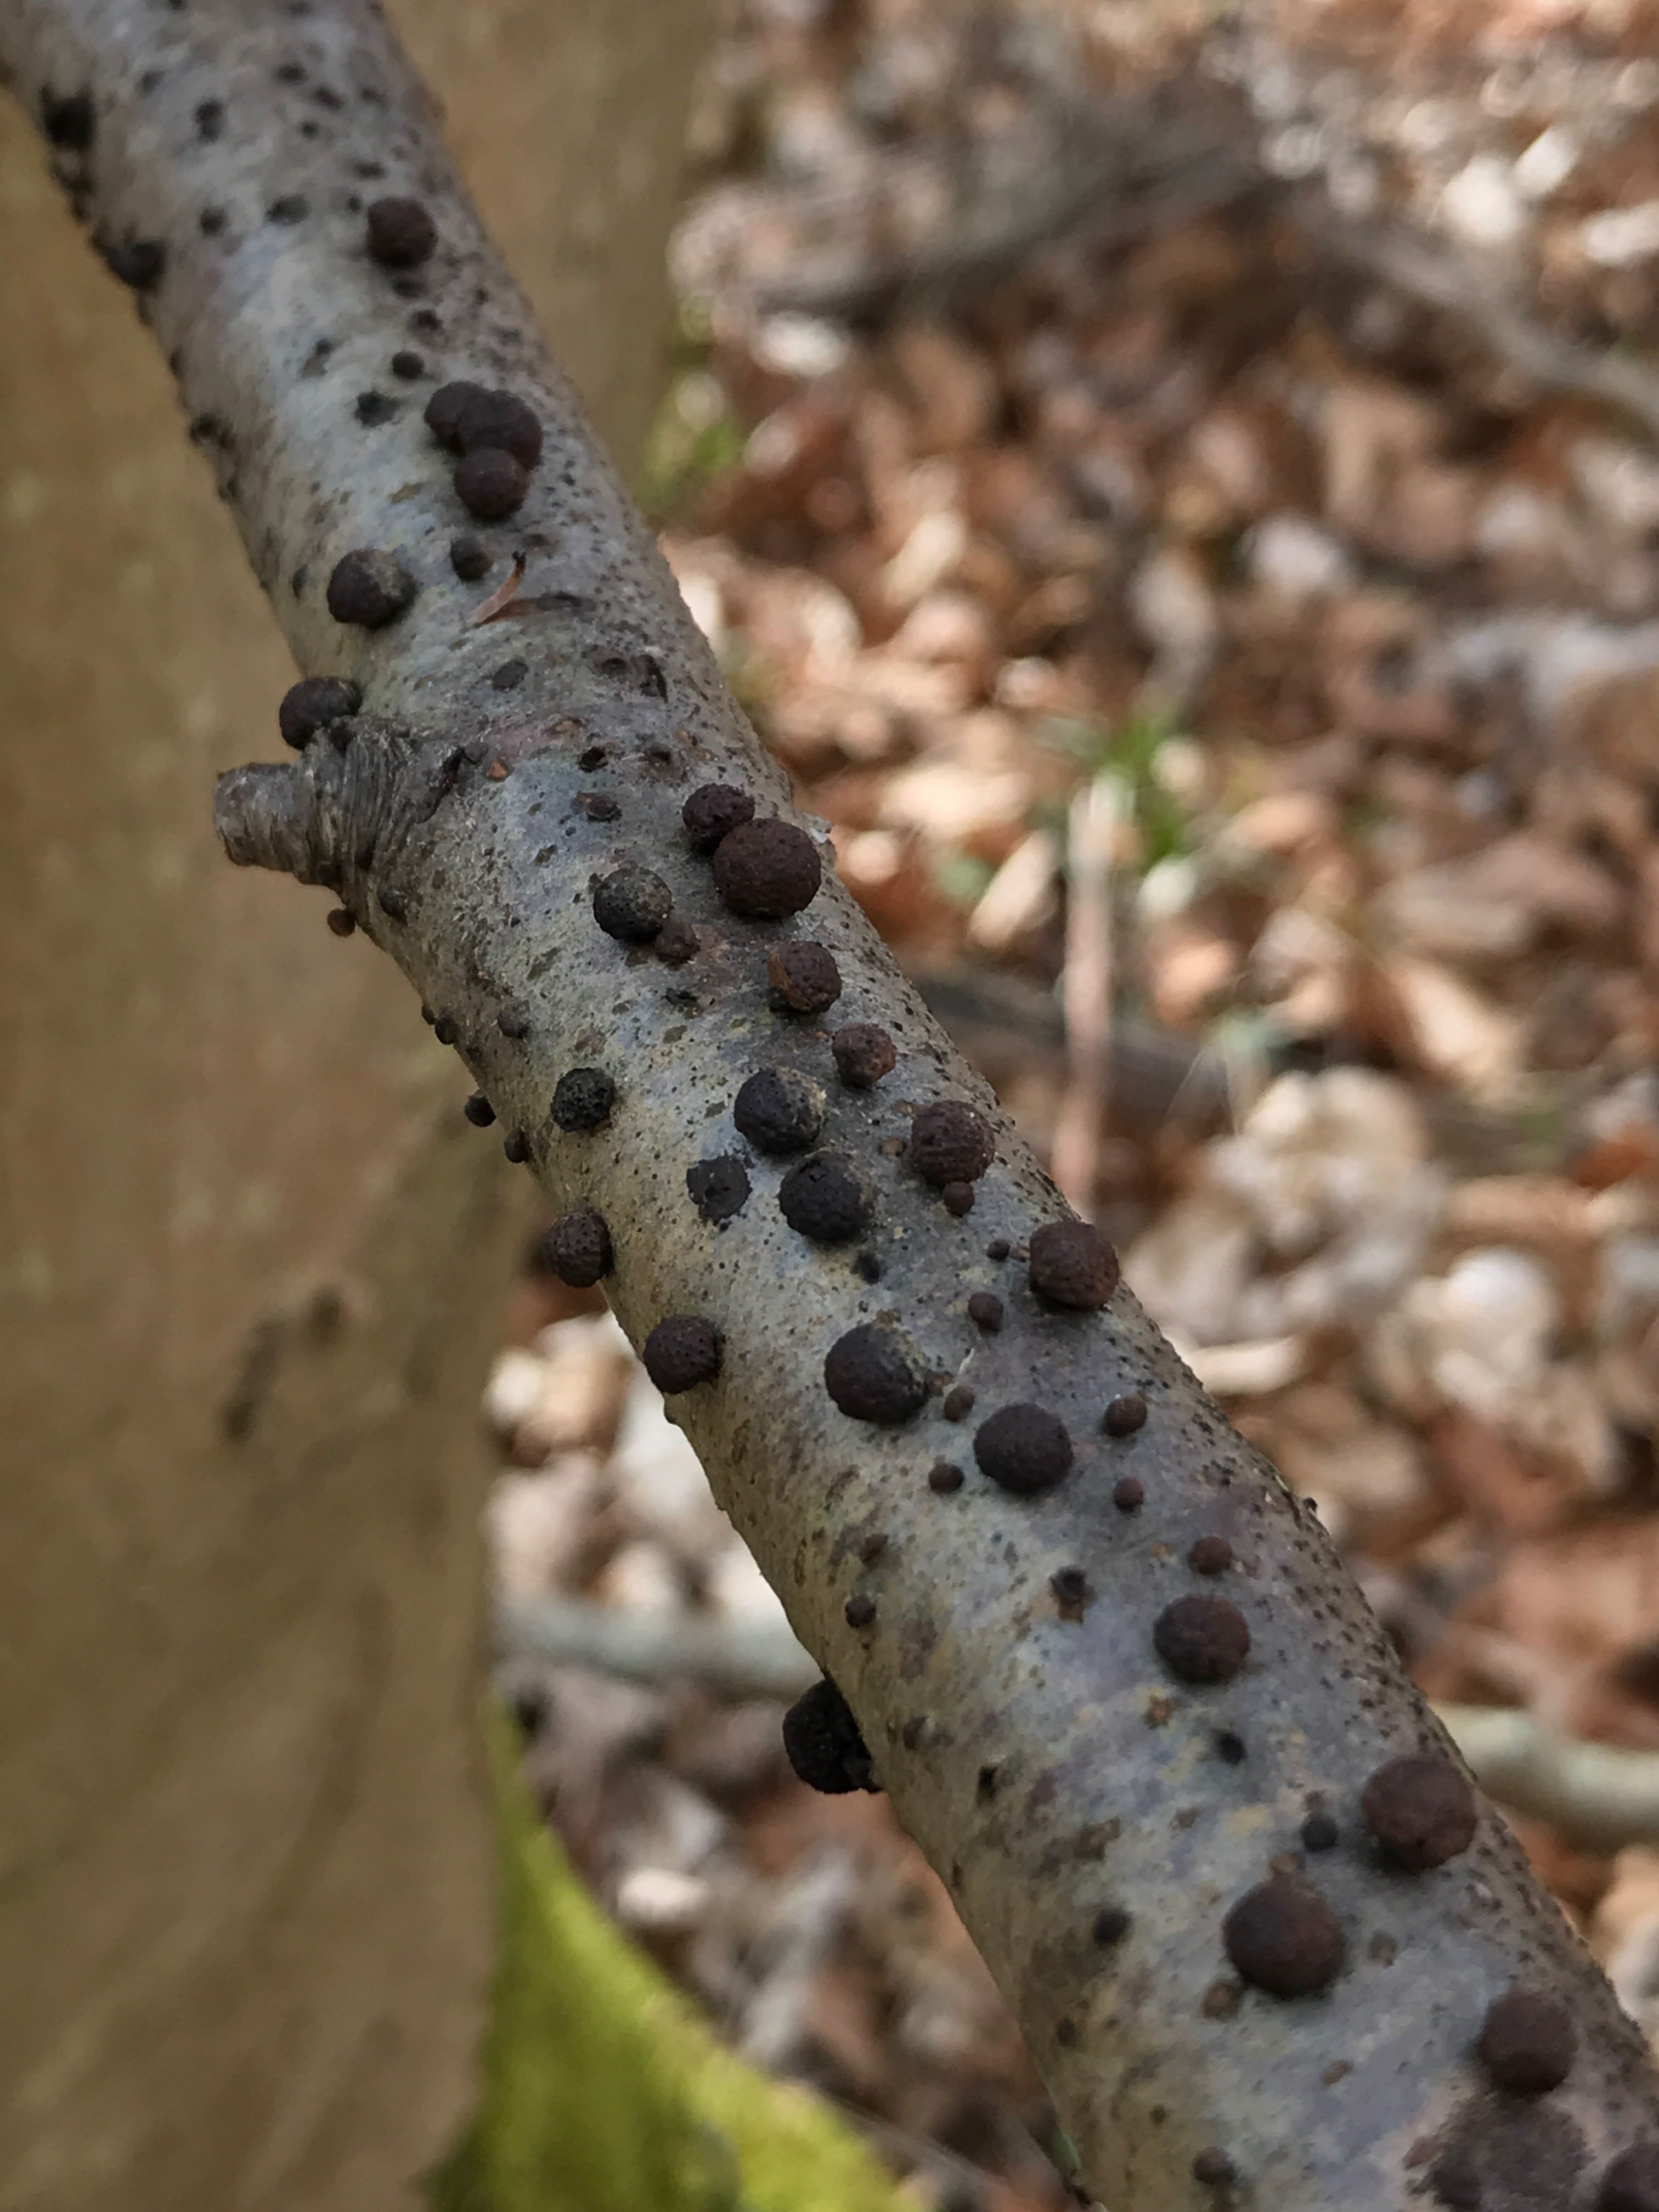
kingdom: Fungi
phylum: Ascomycota
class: Sordariomycetes
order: Xylariales
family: Hypoxylaceae
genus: Hypoxylon
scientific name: Hypoxylon howeanum
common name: halvkugleformet kulbær
